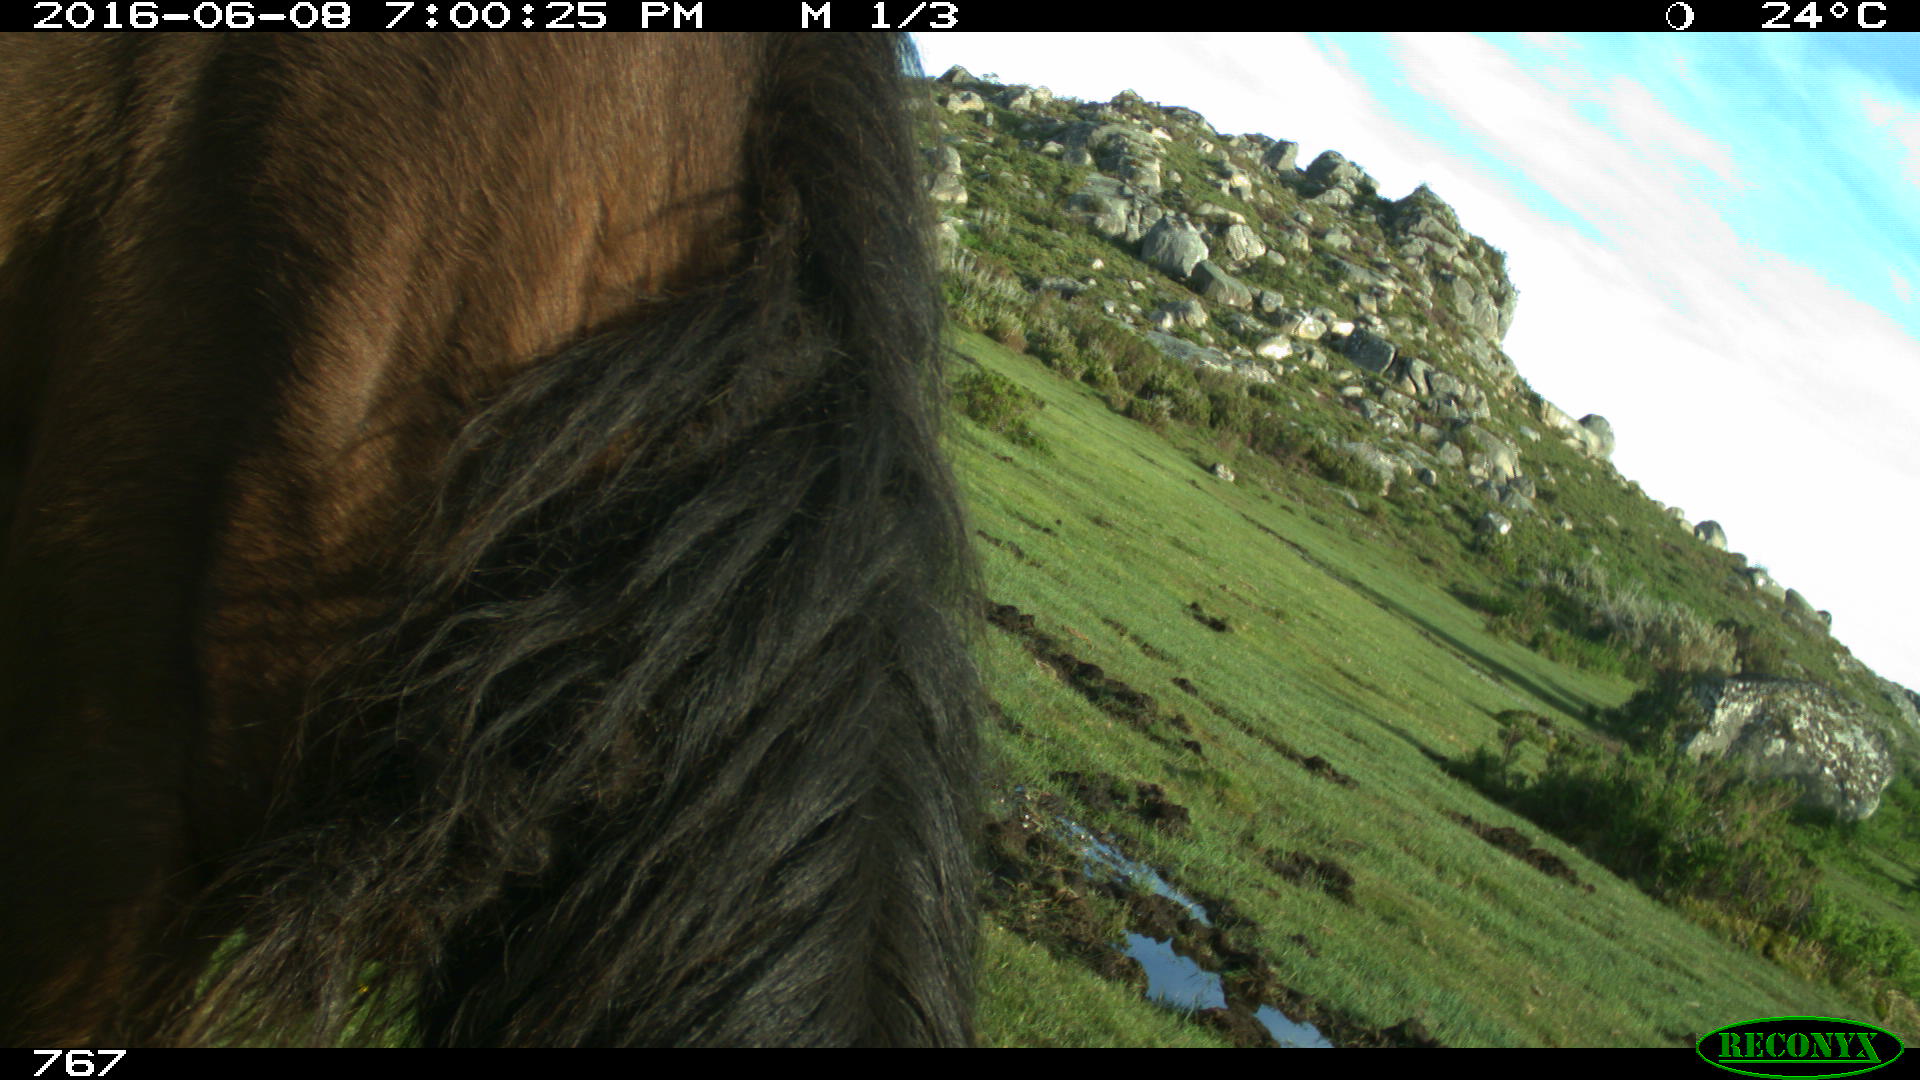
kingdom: Animalia
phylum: Chordata
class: Mammalia
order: Perissodactyla
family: Equidae
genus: Equus
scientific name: Equus caballus
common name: Horse
